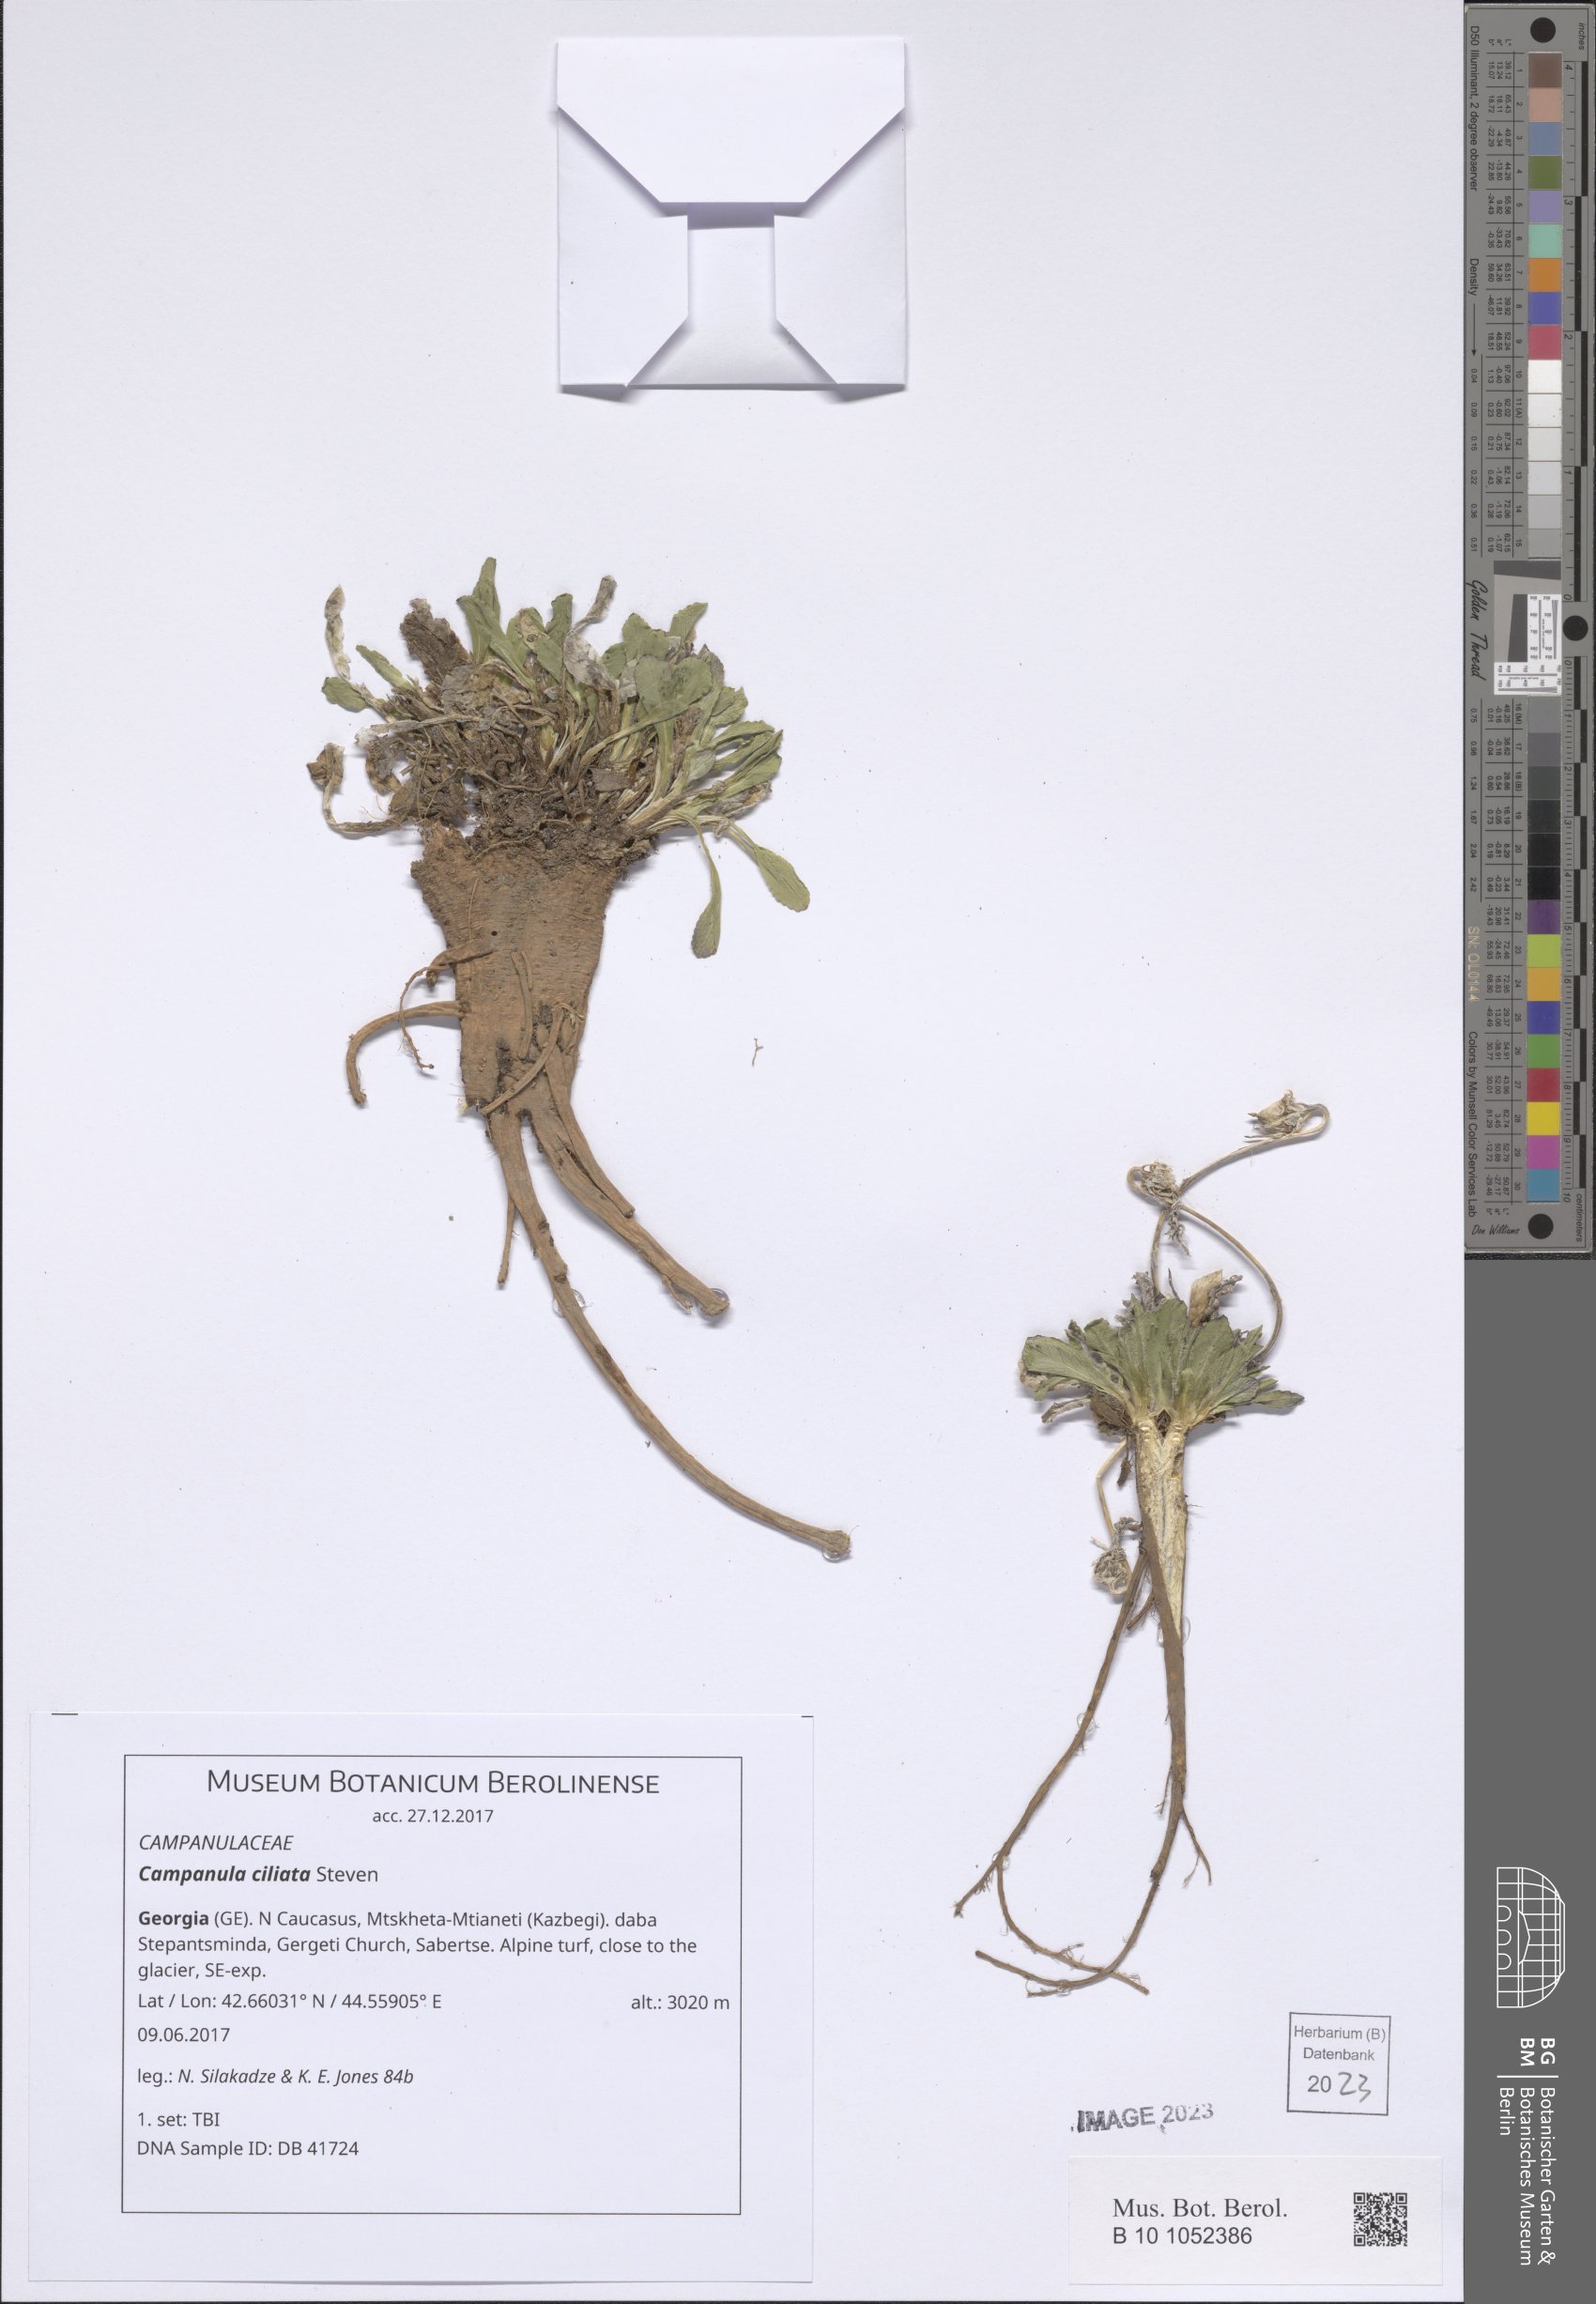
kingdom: Plantae
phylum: Tracheophyta
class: Magnoliopsida
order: Asterales
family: Campanulaceae
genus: Campanula
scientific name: Campanula ciliata
